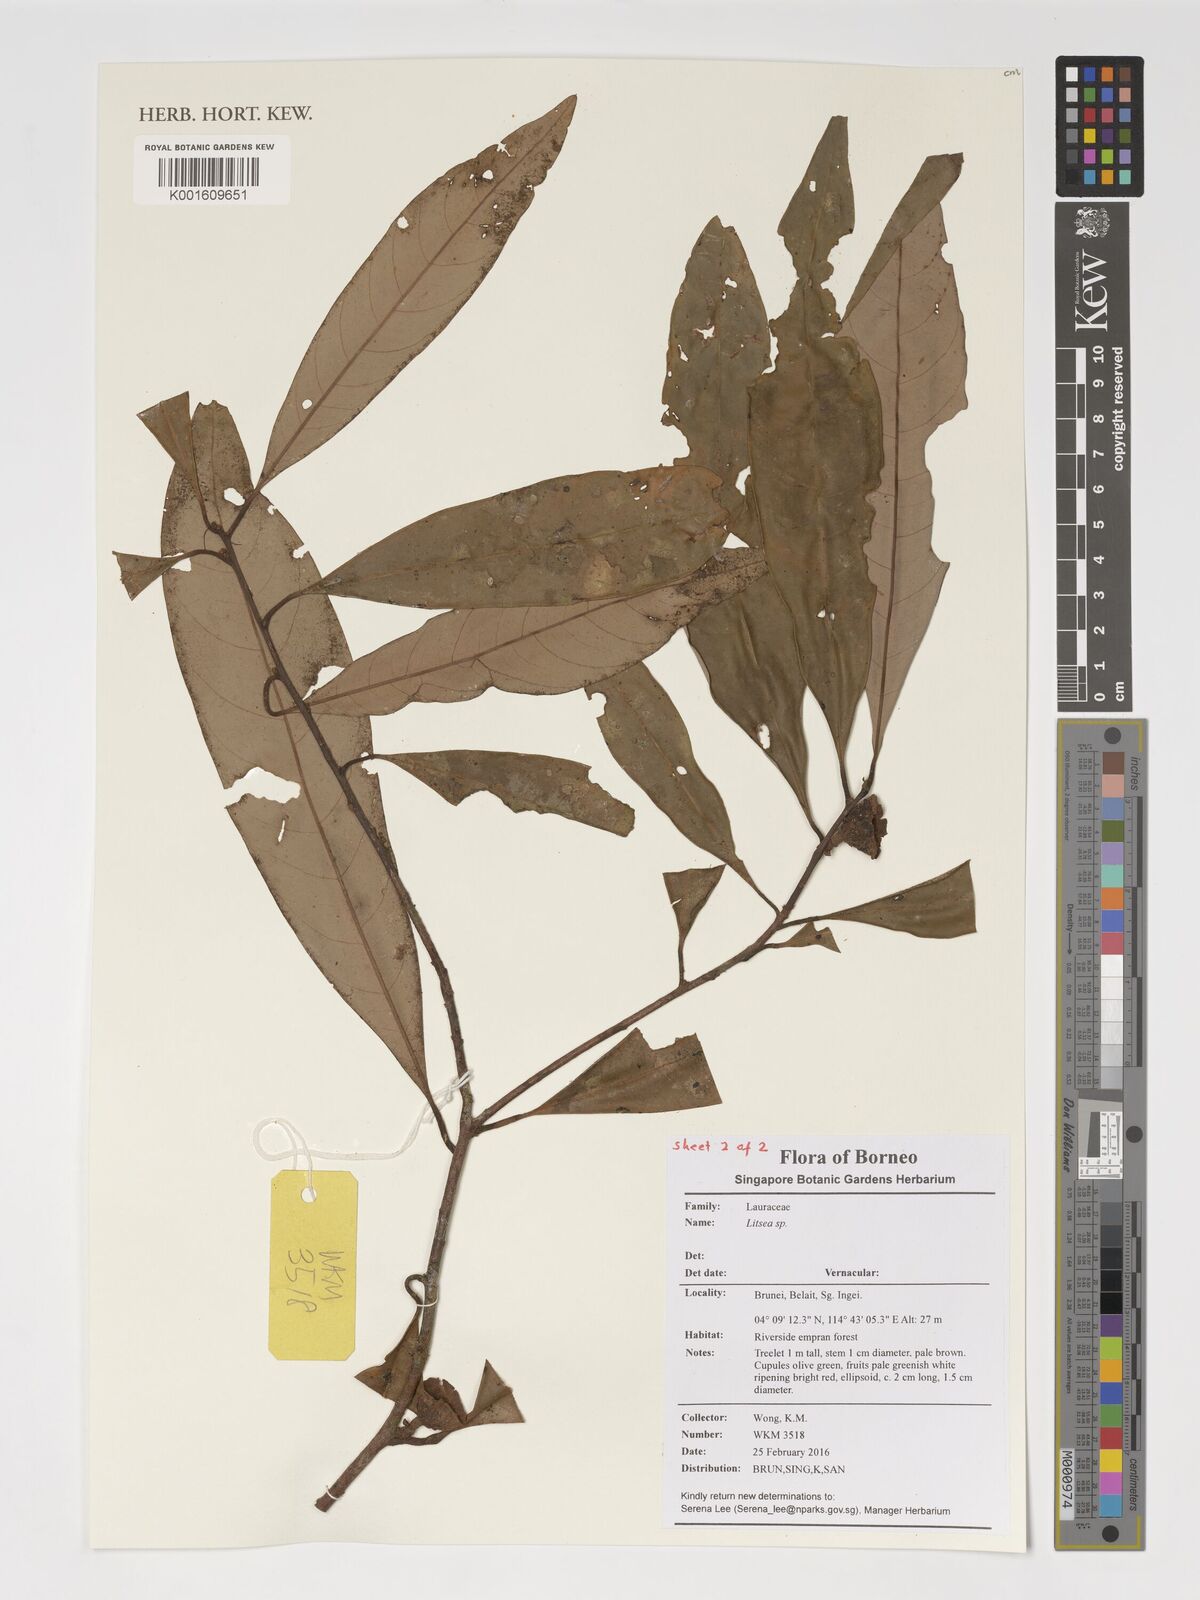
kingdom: Plantae
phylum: Tracheophyta
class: Magnoliopsida
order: Laurales
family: Lauraceae
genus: Litsea
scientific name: Litsea
